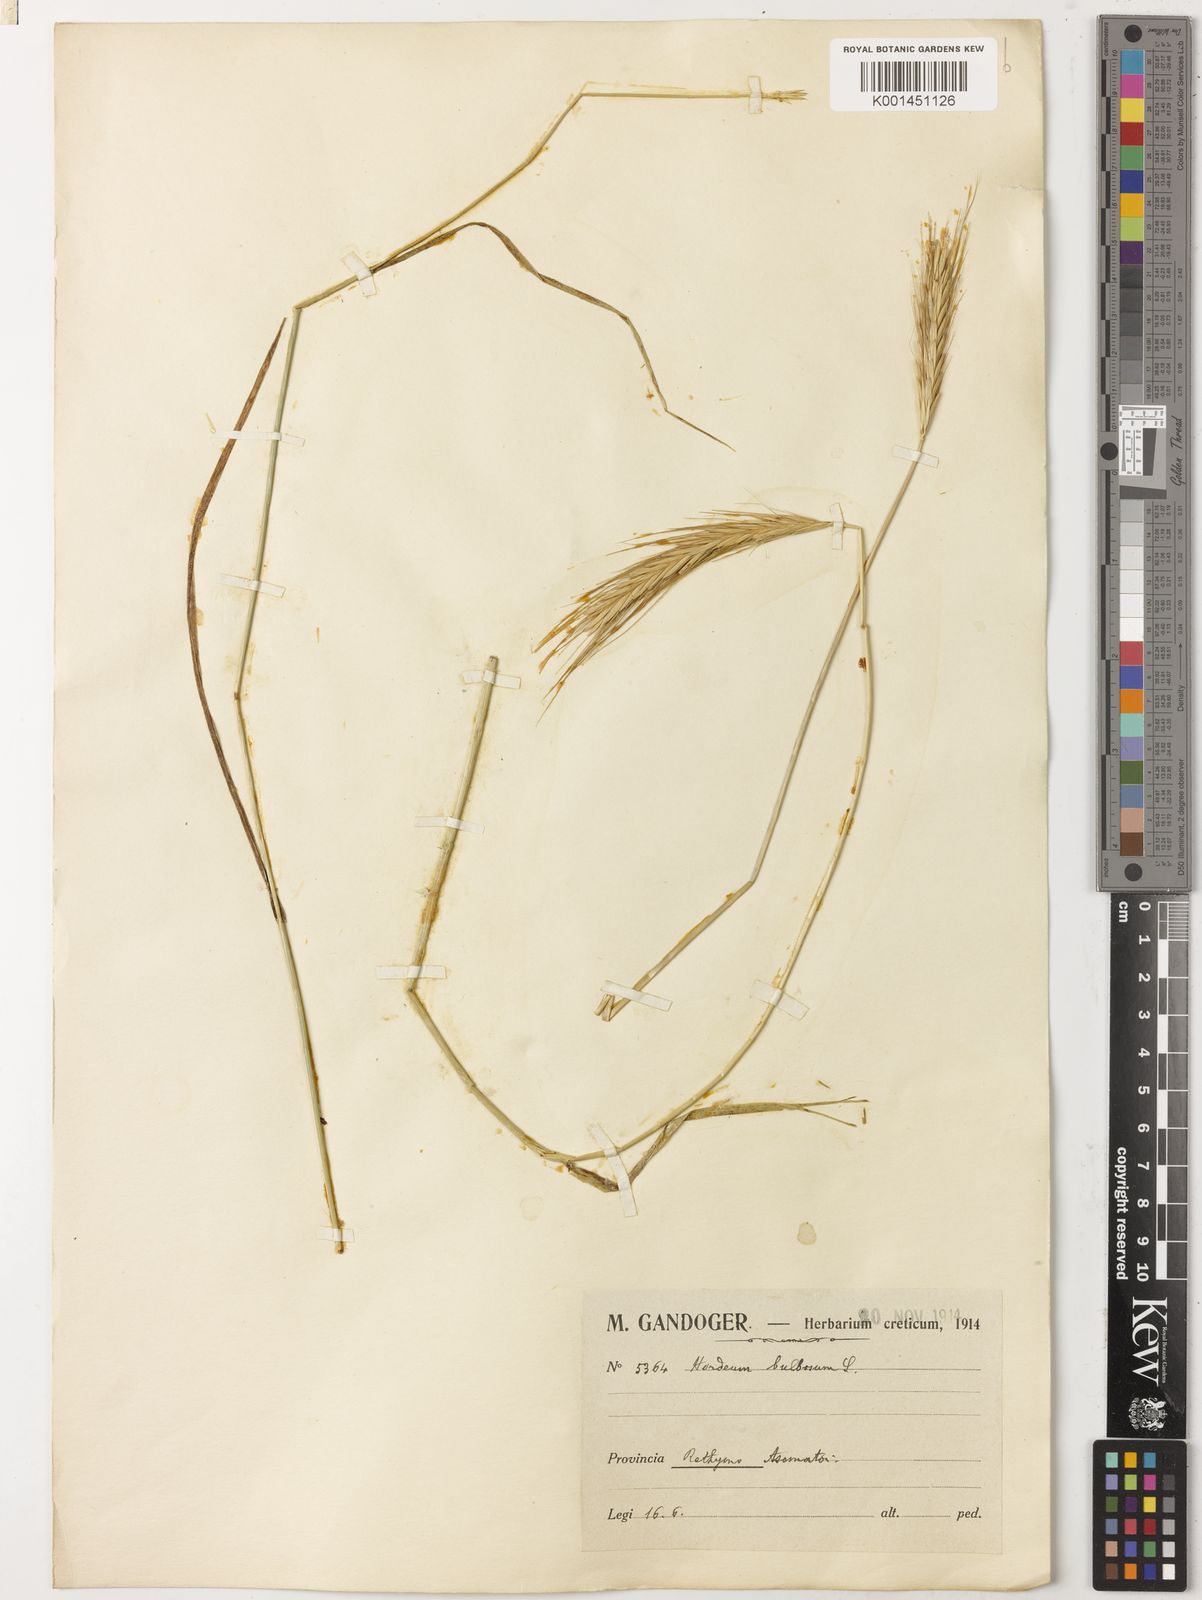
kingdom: Plantae
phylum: Tracheophyta
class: Liliopsida
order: Poales
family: Poaceae
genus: Hordeum
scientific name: Hordeum bulbosum
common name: Bulbous barley
